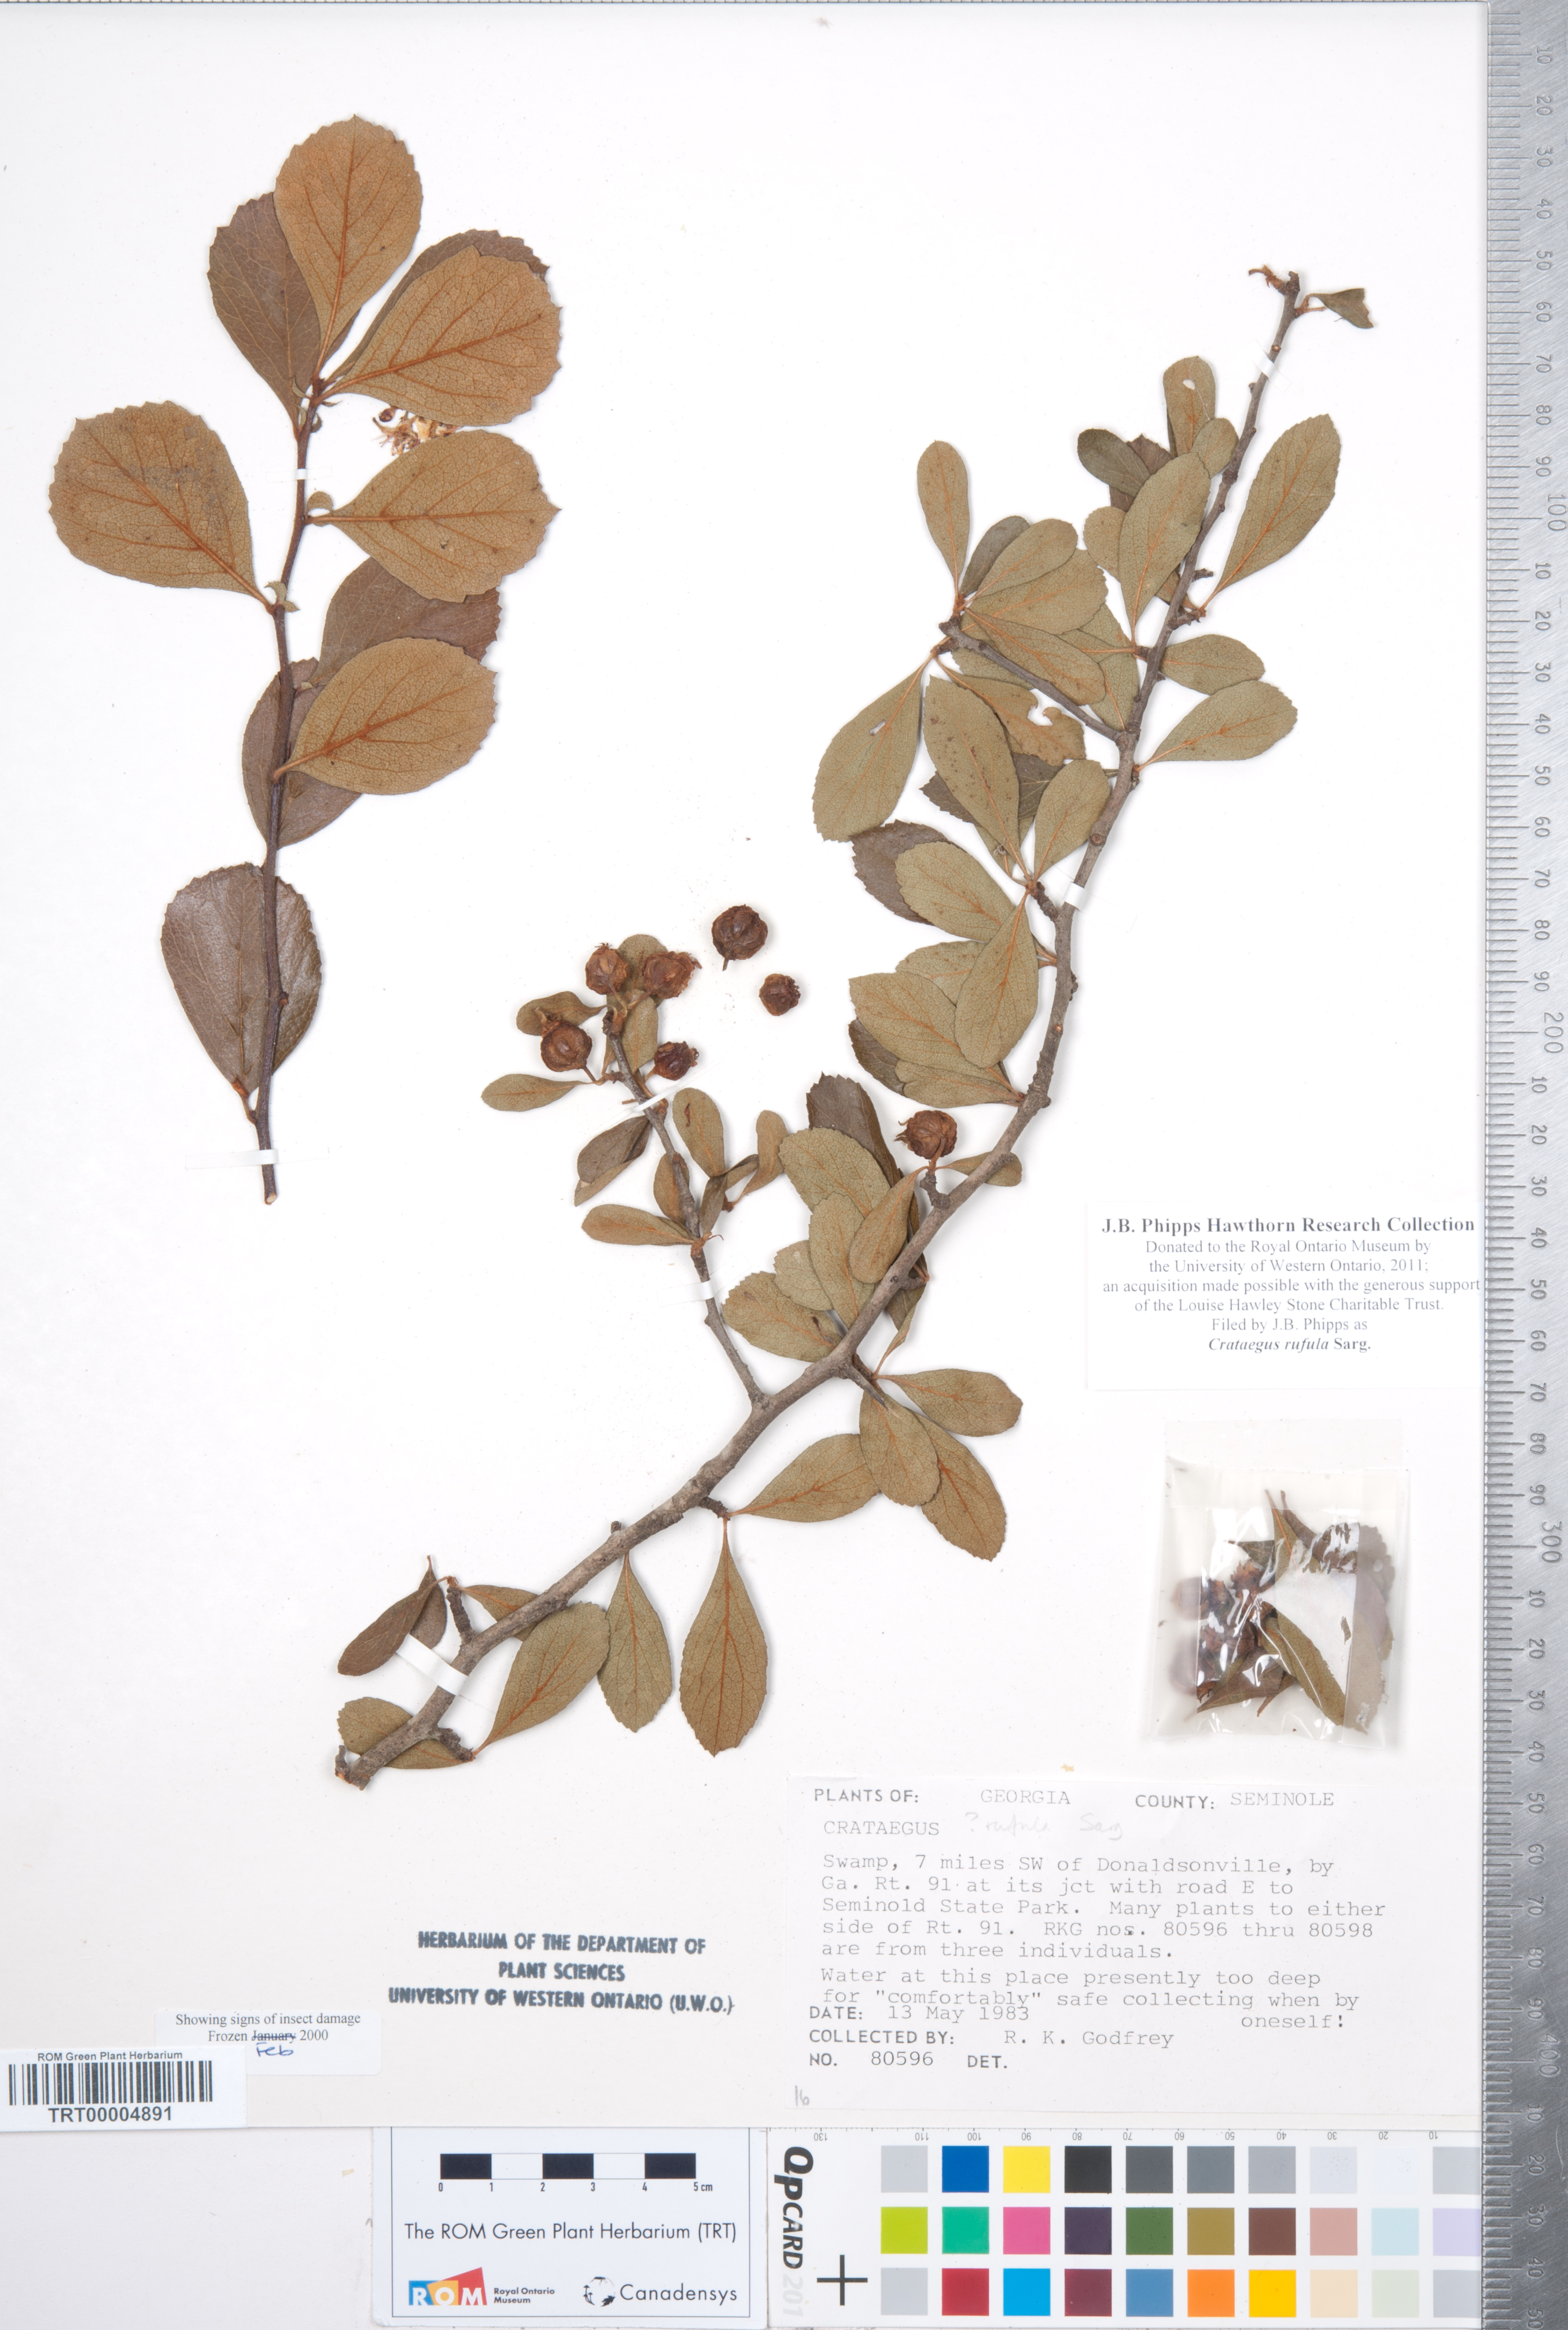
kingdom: Plantae
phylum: Tracheophyta
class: Magnoliopsida
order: Rosales
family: Rosaceae
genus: Crataegus
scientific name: Crataegus rufula
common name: Rufous mayhaw
